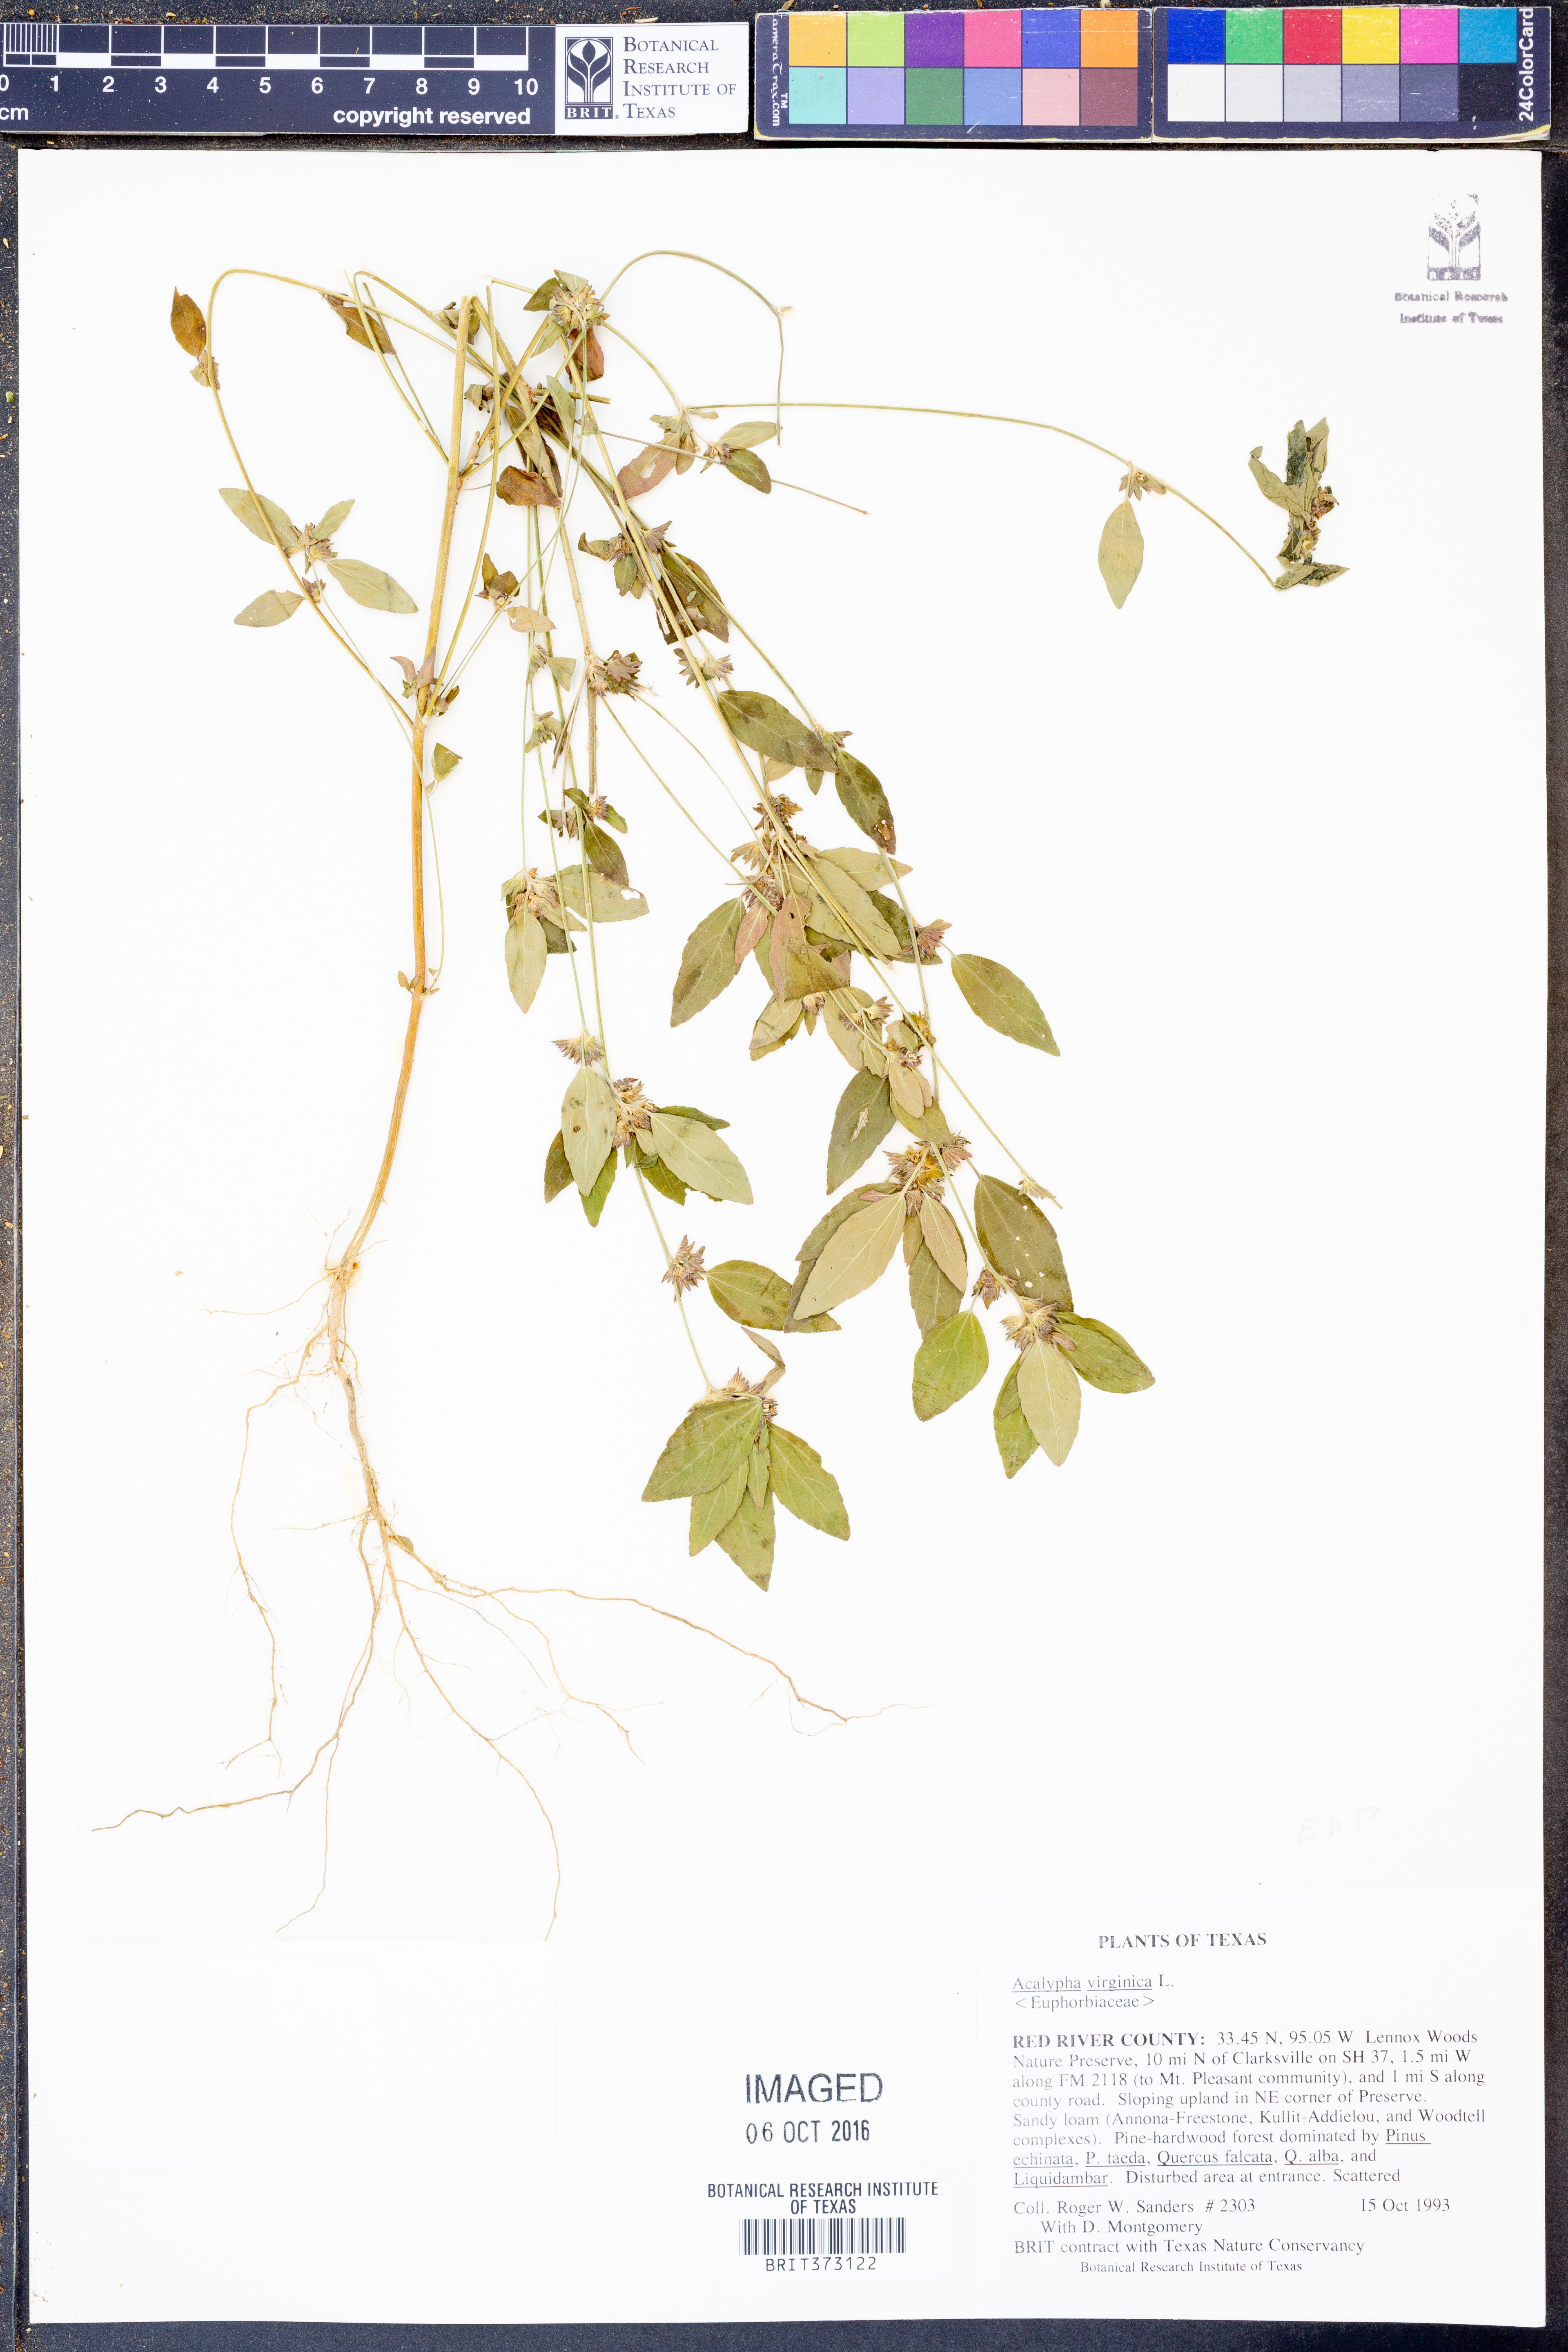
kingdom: Plantae
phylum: Tracheophyta
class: Magnoliopsida
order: Malpighiales
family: Euphorbiaceae
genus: Acalypha
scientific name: Acalypha virginica
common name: Virginia copperleaf
